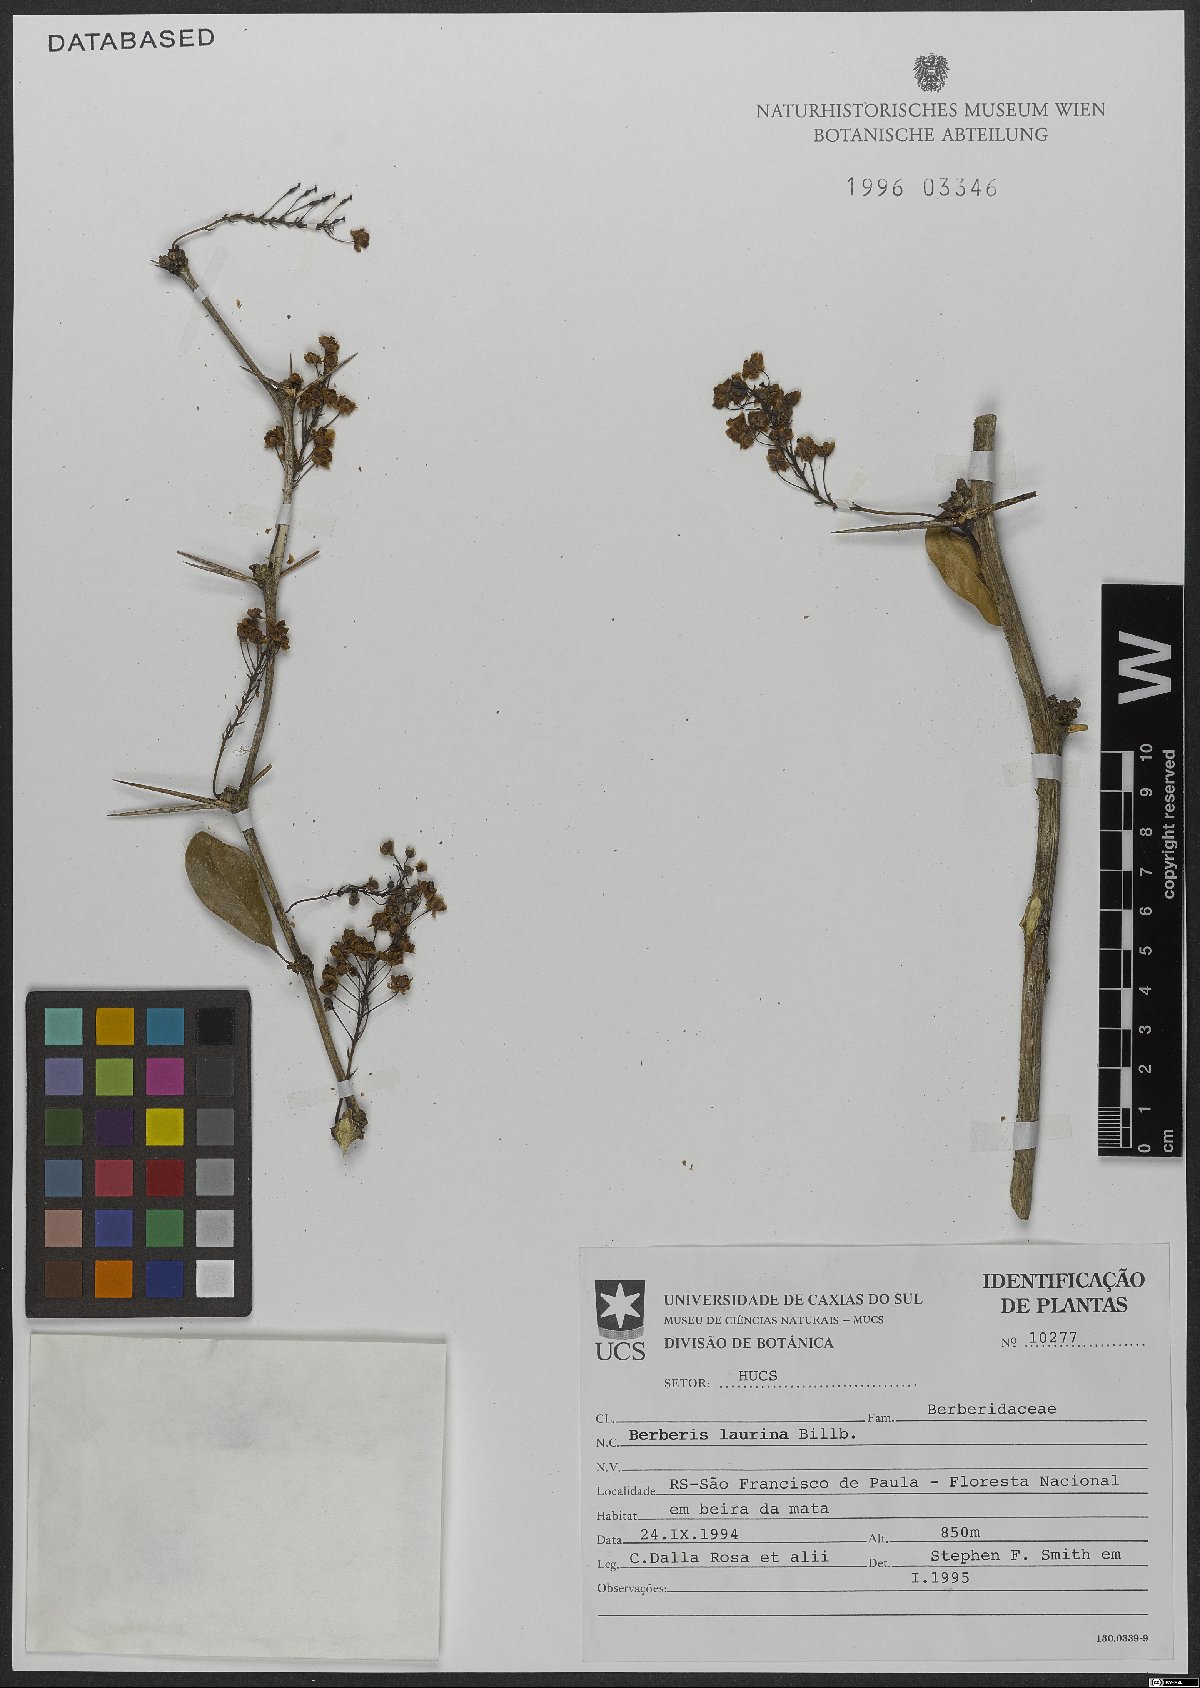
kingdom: Plantae
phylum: Tracheophyta
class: Magnoliopsida
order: Ranunculales
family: Berberidaceae
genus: Berberis
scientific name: Berberis laurina
